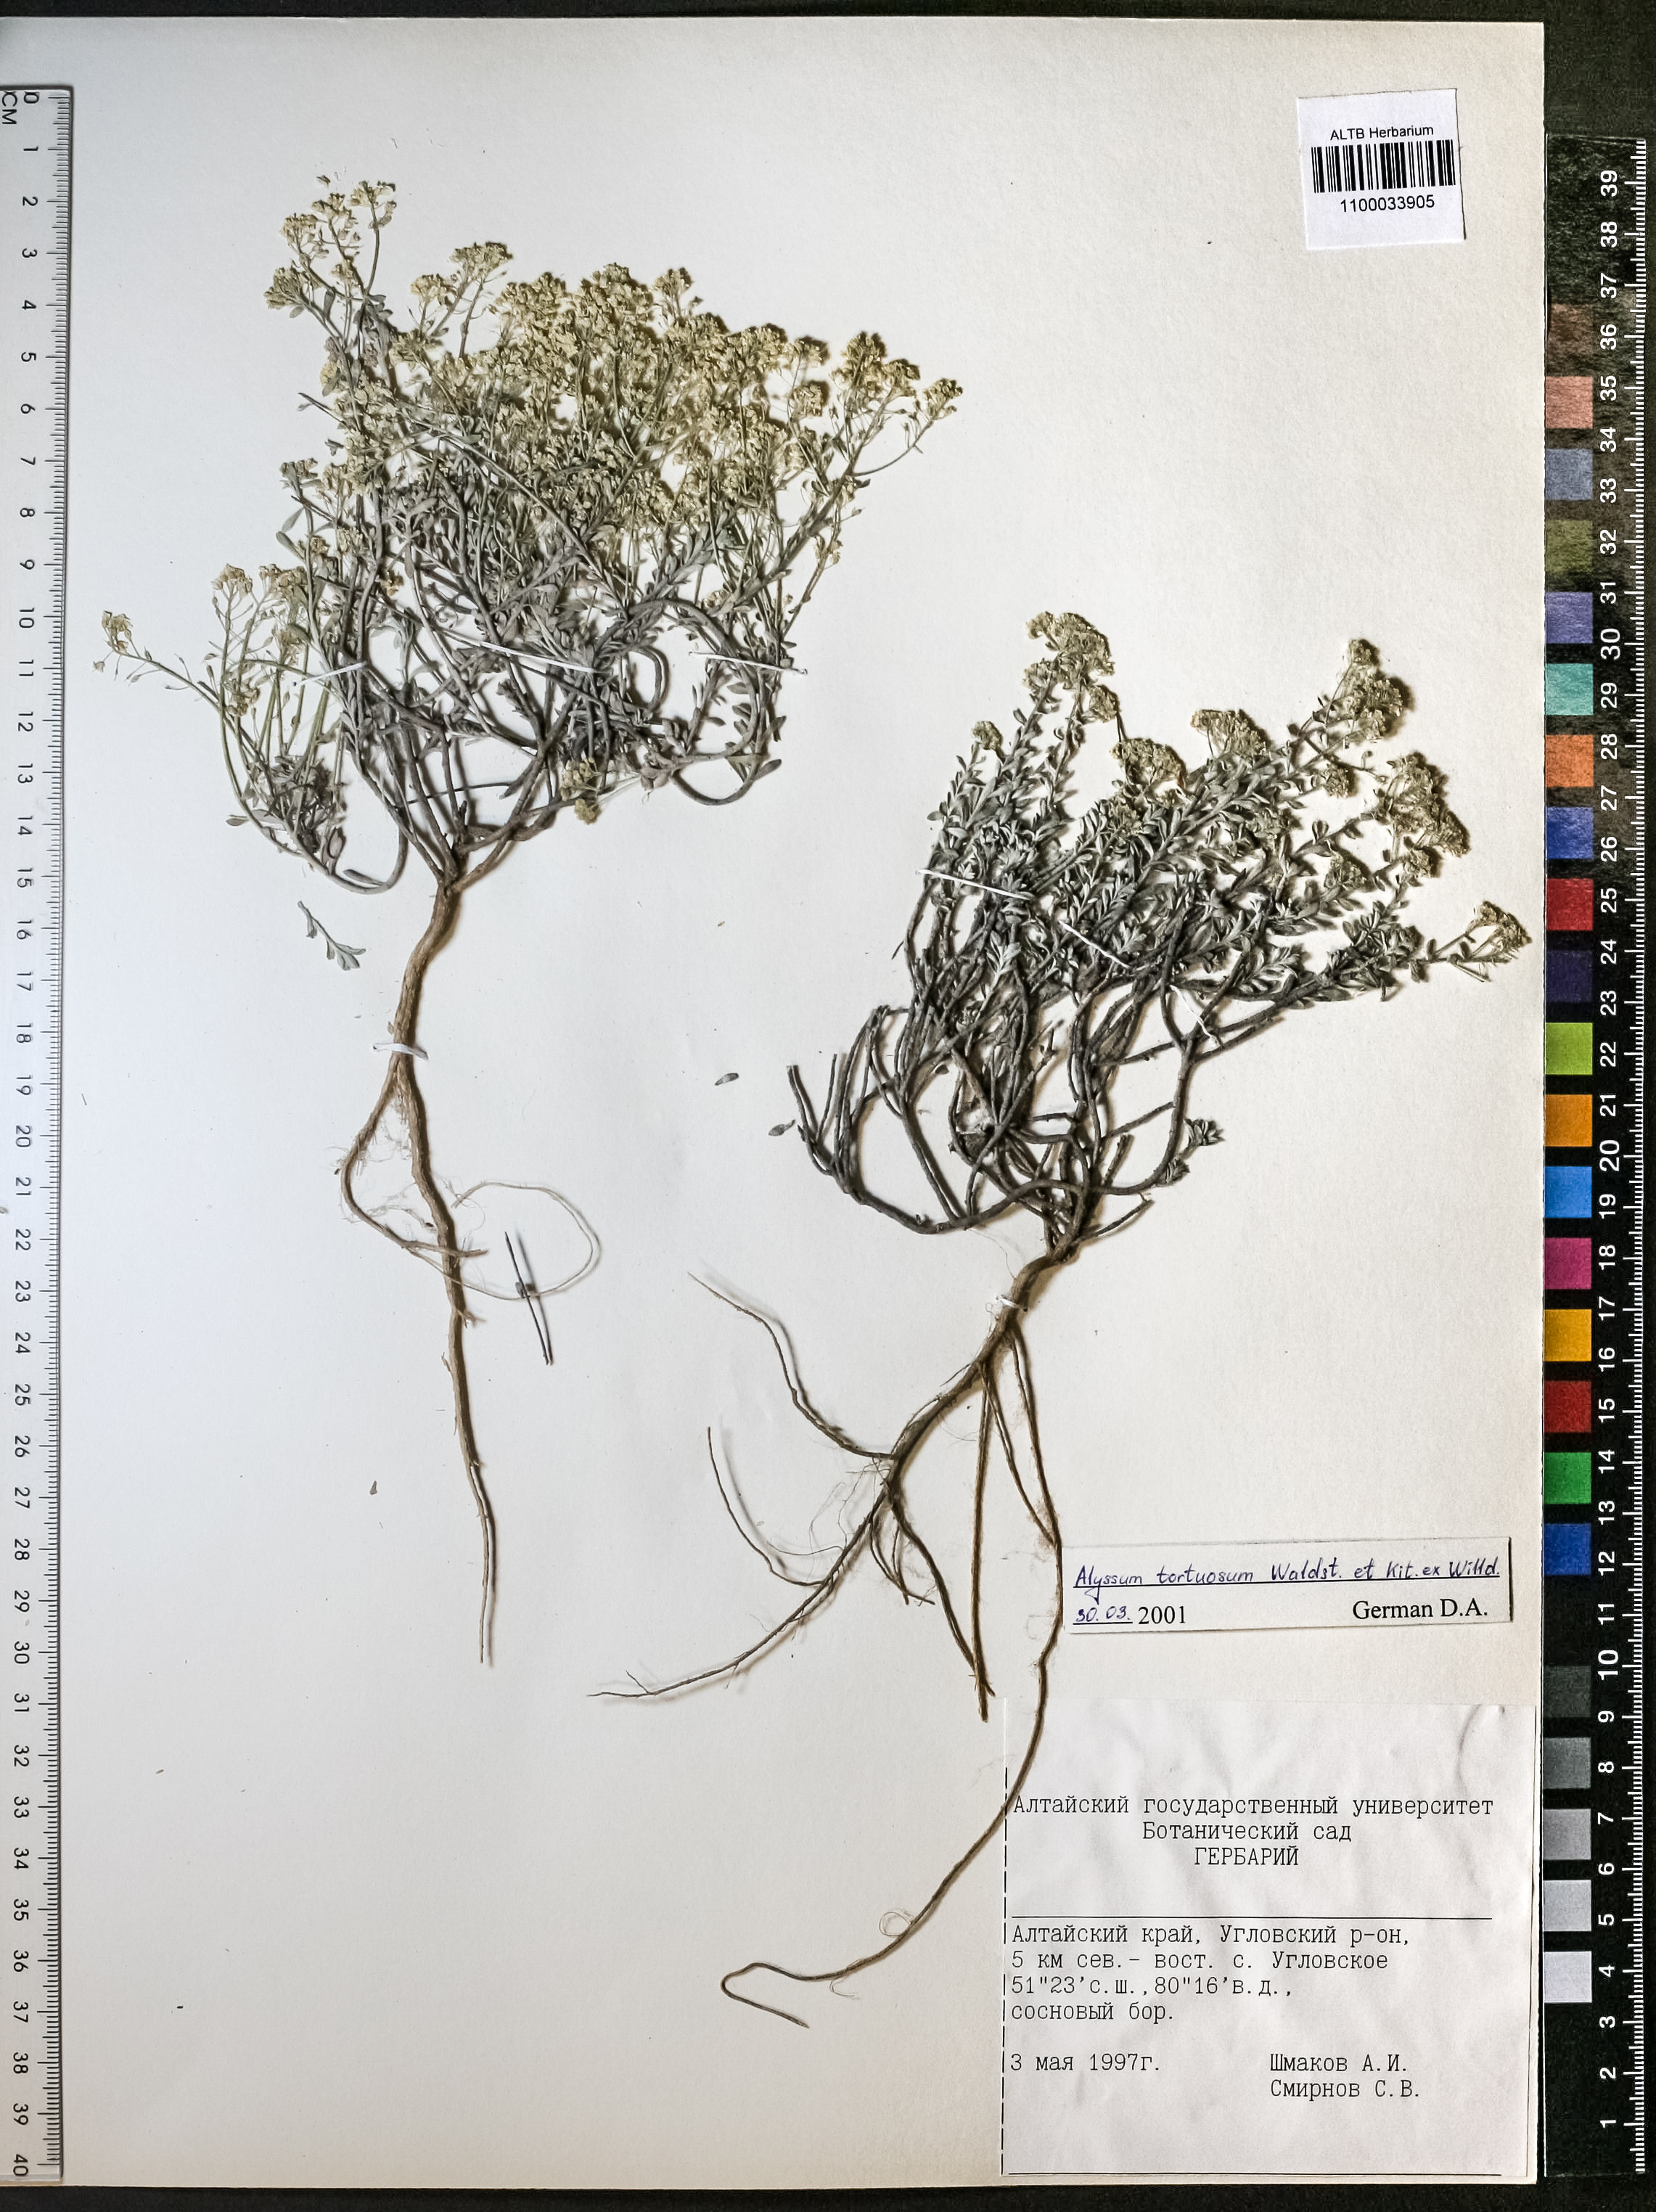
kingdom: Plantae
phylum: Tracheophyta
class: Magnoliopsida
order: Brassicales
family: Brassicaceae
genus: Odontarrhena
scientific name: Odontarrhena alpestris
